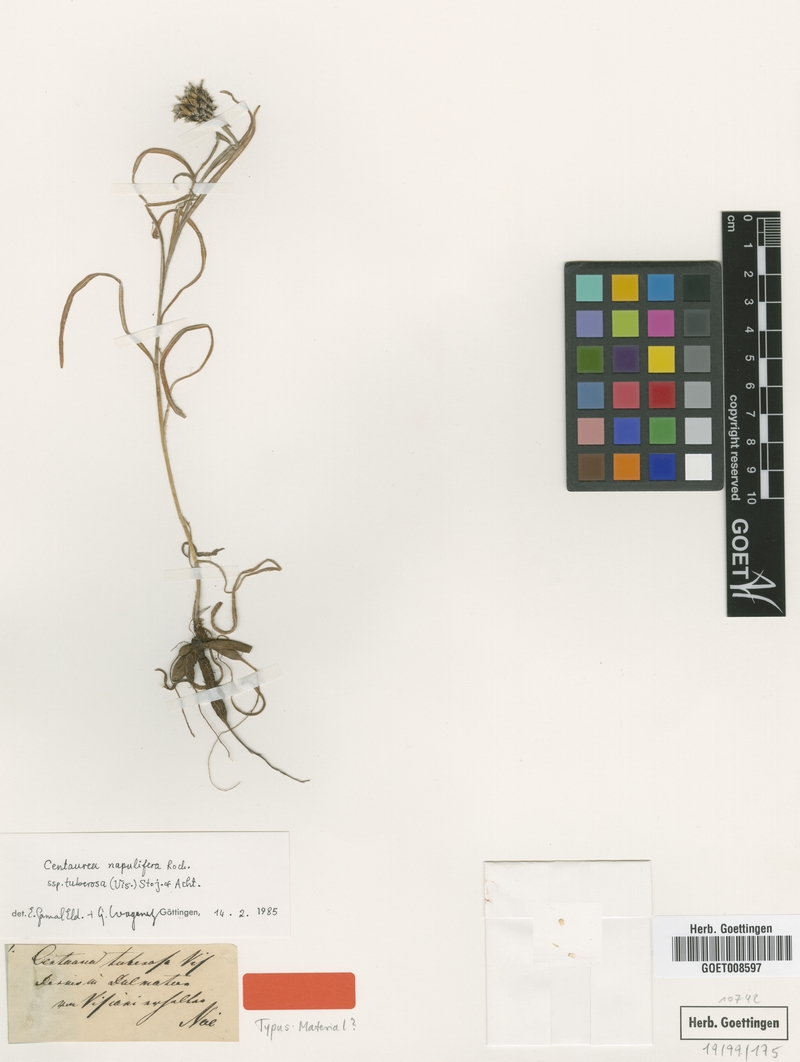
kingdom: Plantae
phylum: Tracheophyta
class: Magnoliopsida
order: Asterales
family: Asteraceae
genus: Centaurea
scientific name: Centaurea tuberosa
